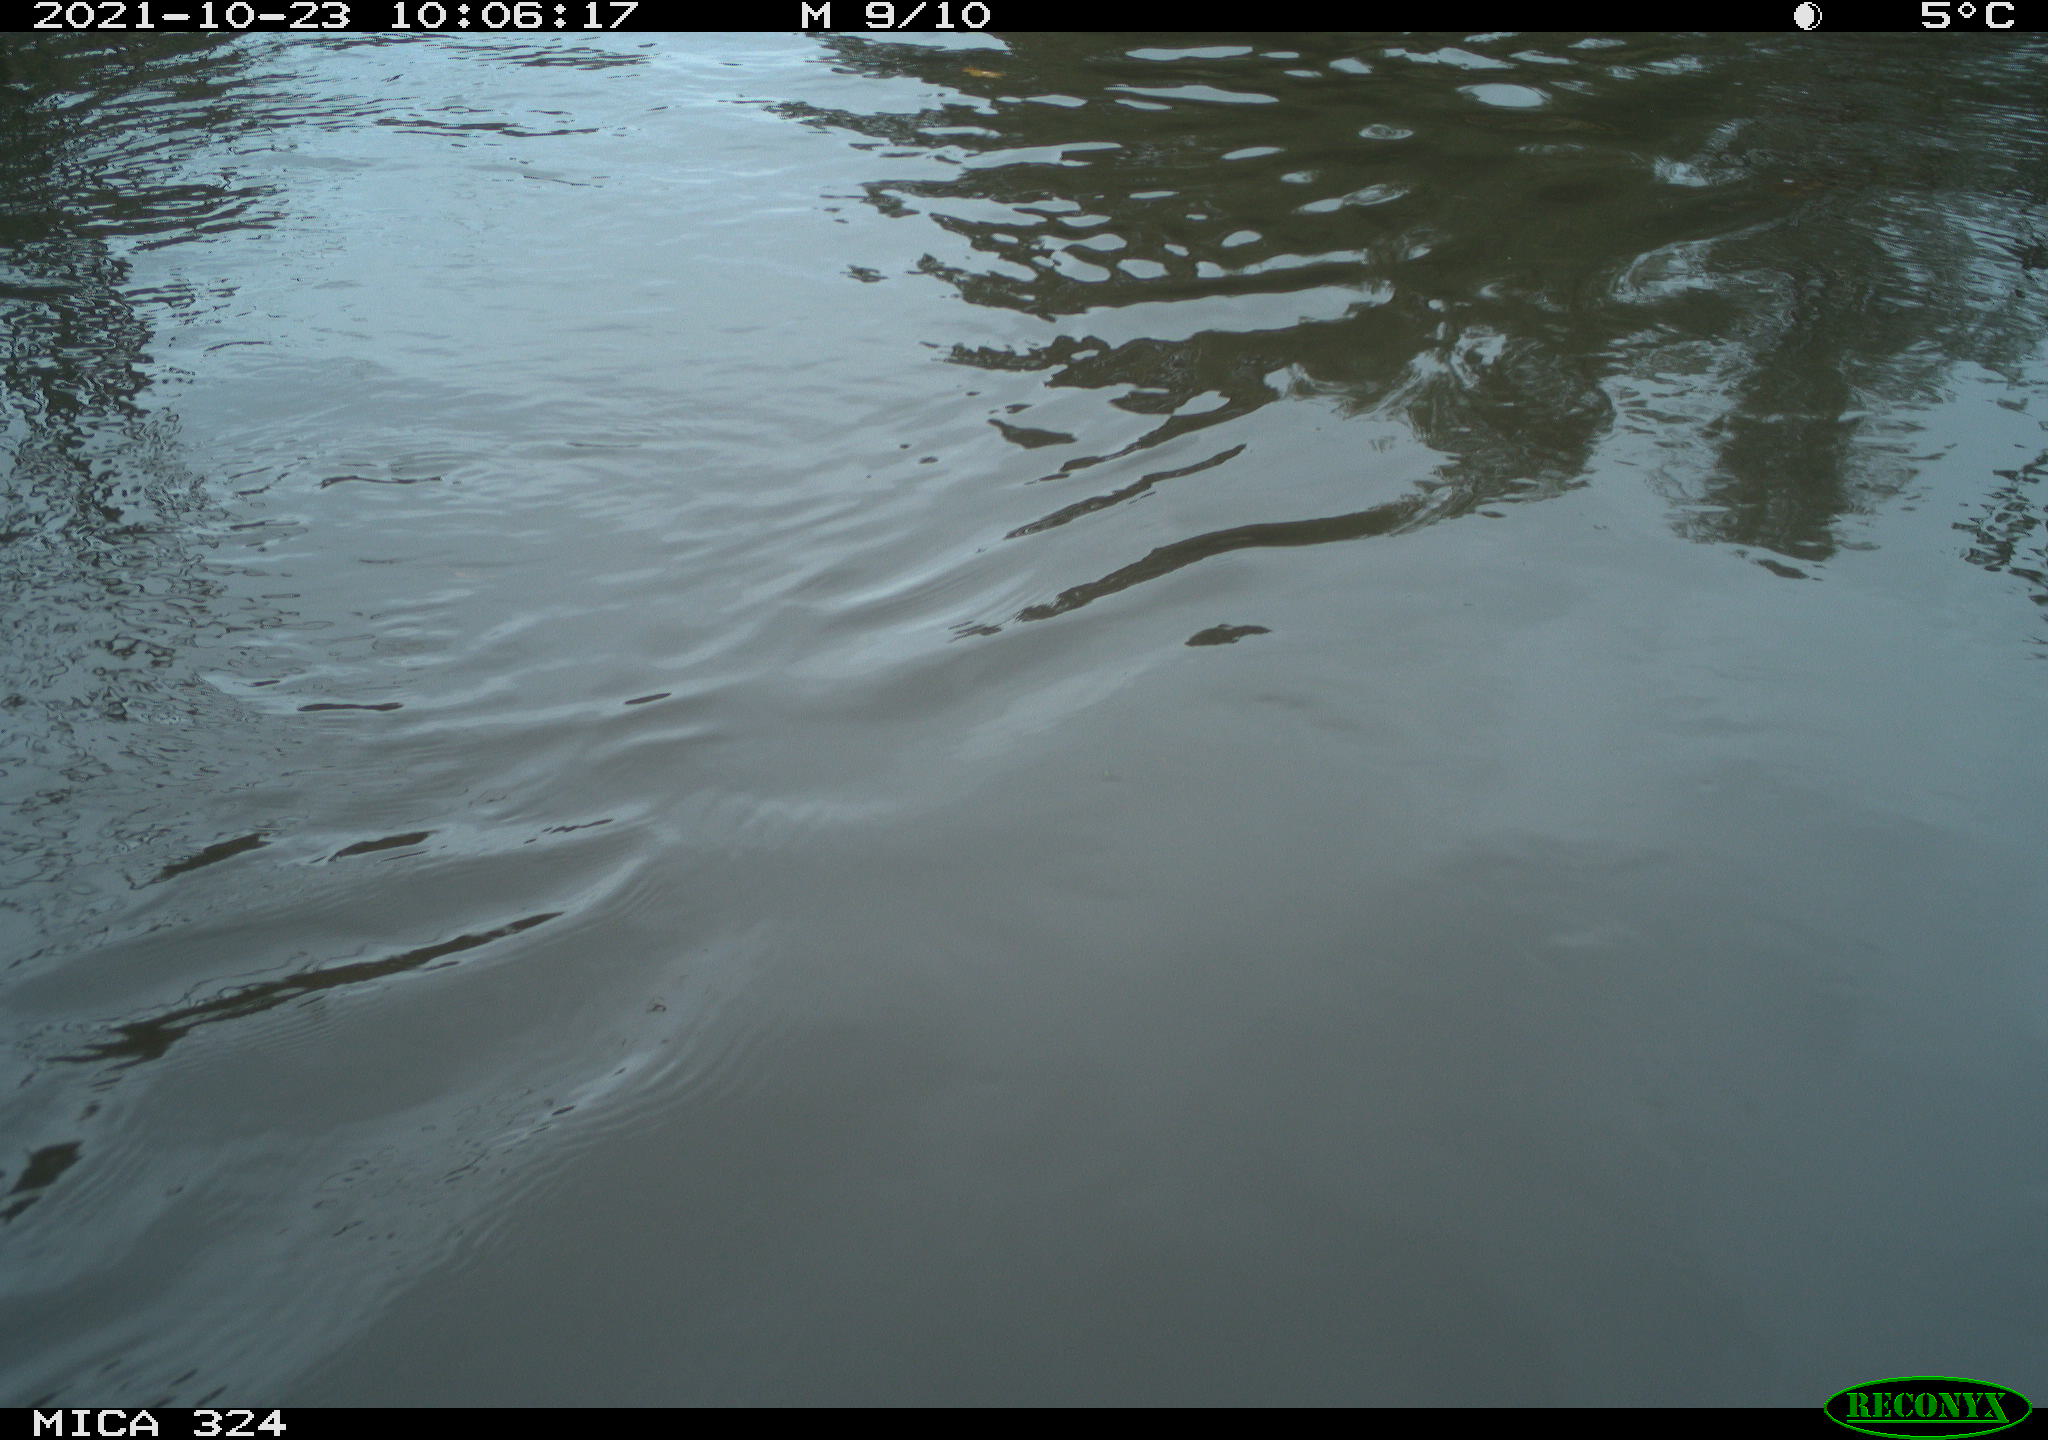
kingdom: Animalia
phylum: Chordata
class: Mammalia
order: Rodentia
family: Cricetidae
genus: Ondatra
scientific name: Ondatra zibethicus
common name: Muskrat
